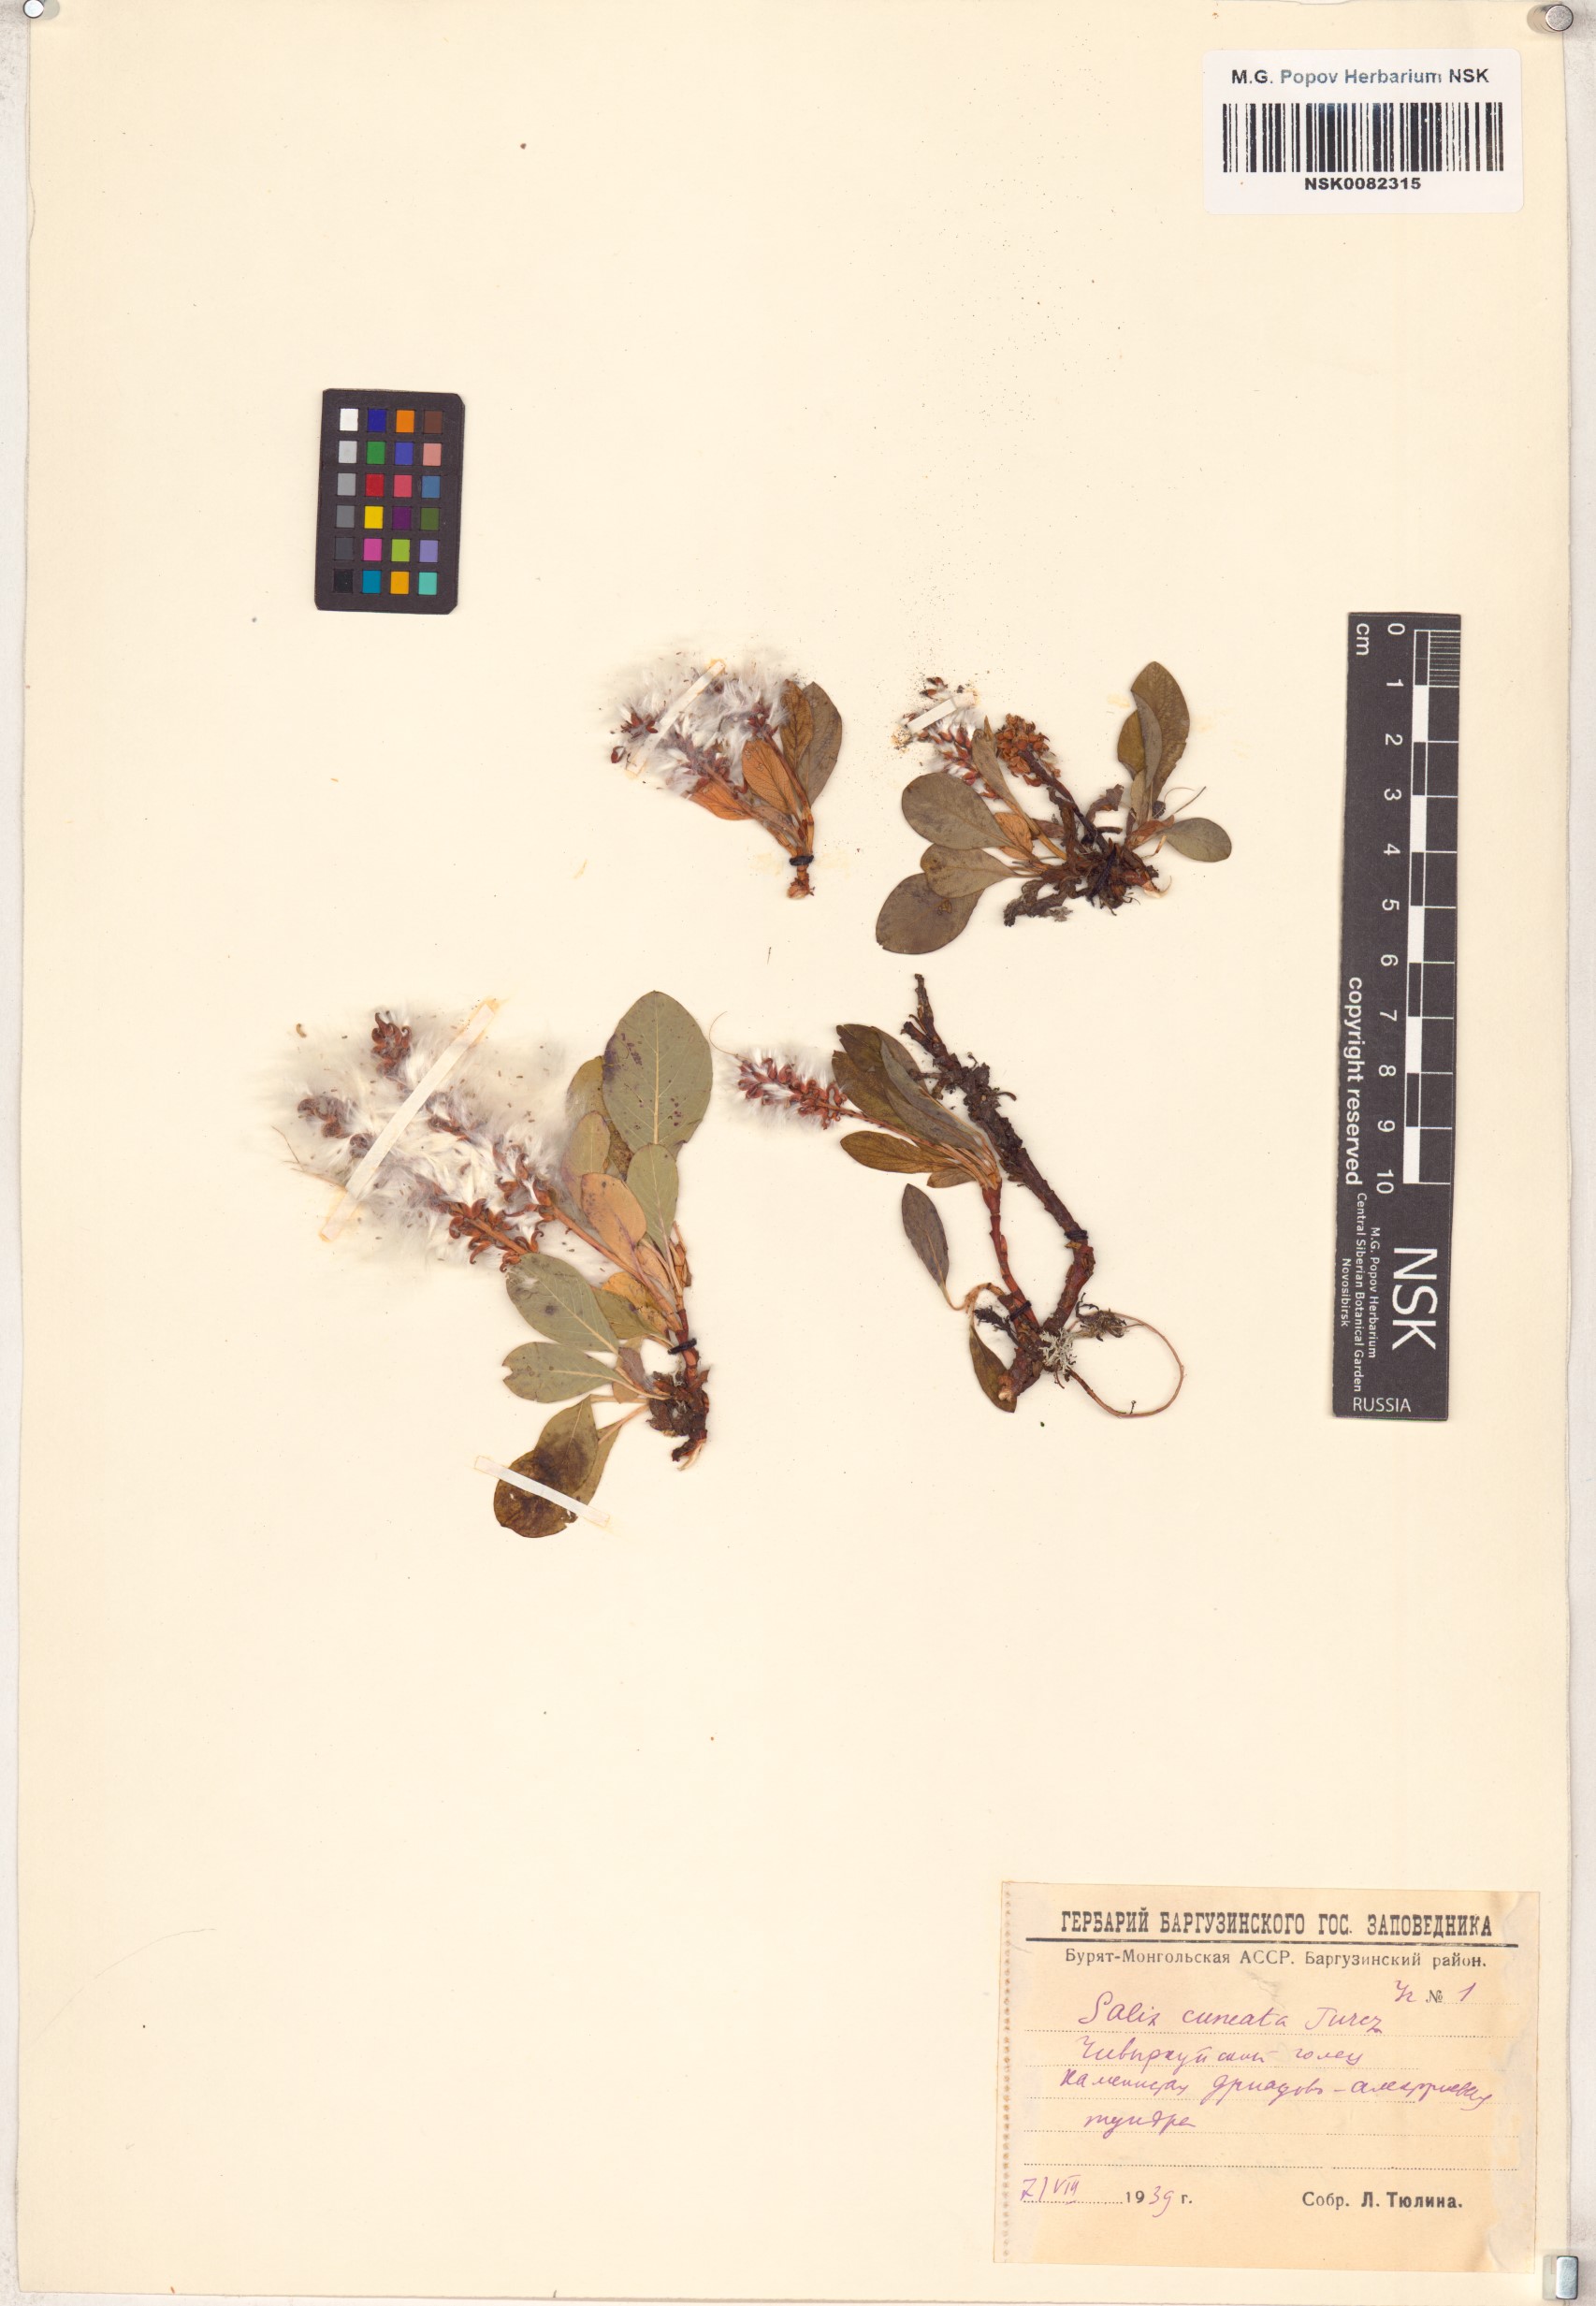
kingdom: Plantae
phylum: Tracheophyta
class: Magnoliopsida
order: Malpighiales
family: Salicaceae
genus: Salix
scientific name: Salix sphenophylla
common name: Wedge-leaved willow
